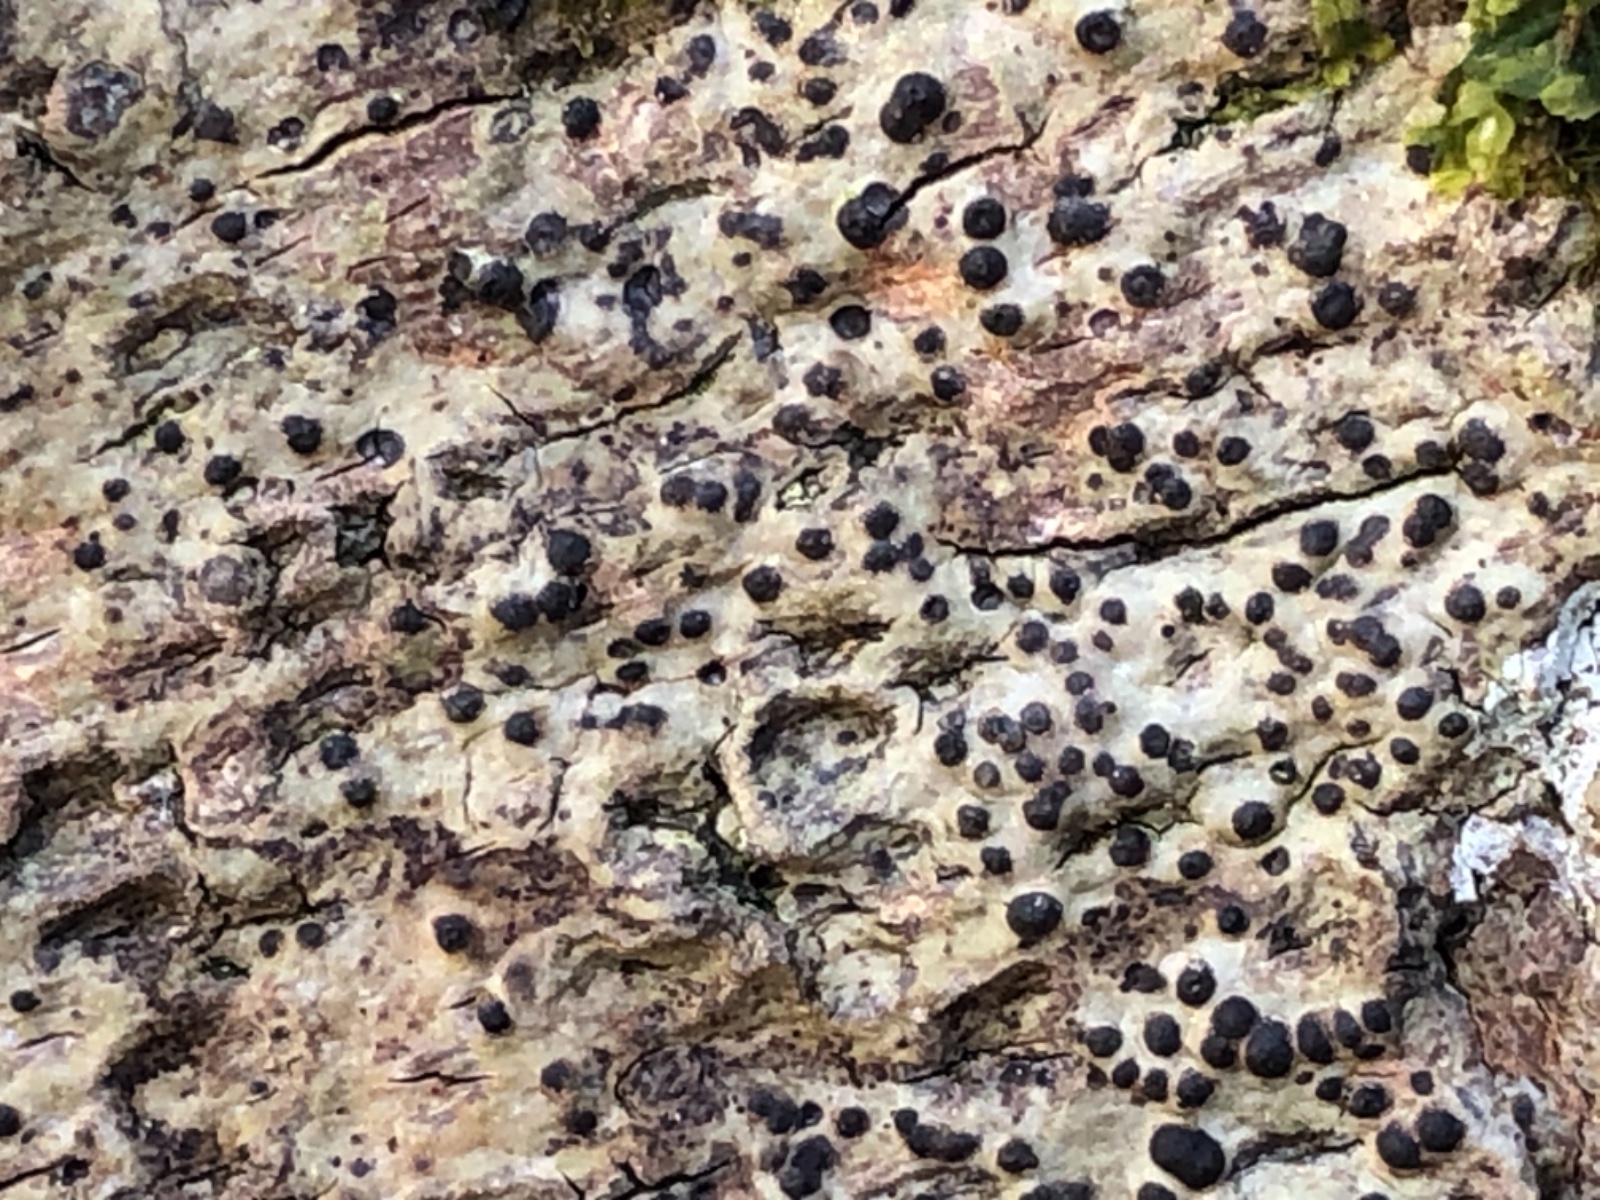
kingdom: Fungi
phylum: Ascomycota
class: Eurotiomycetes
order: Pyrenulales
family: Pyrenulaceae
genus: Pyrenula
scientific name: Pyrenula nitida
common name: glinsende kernelav
